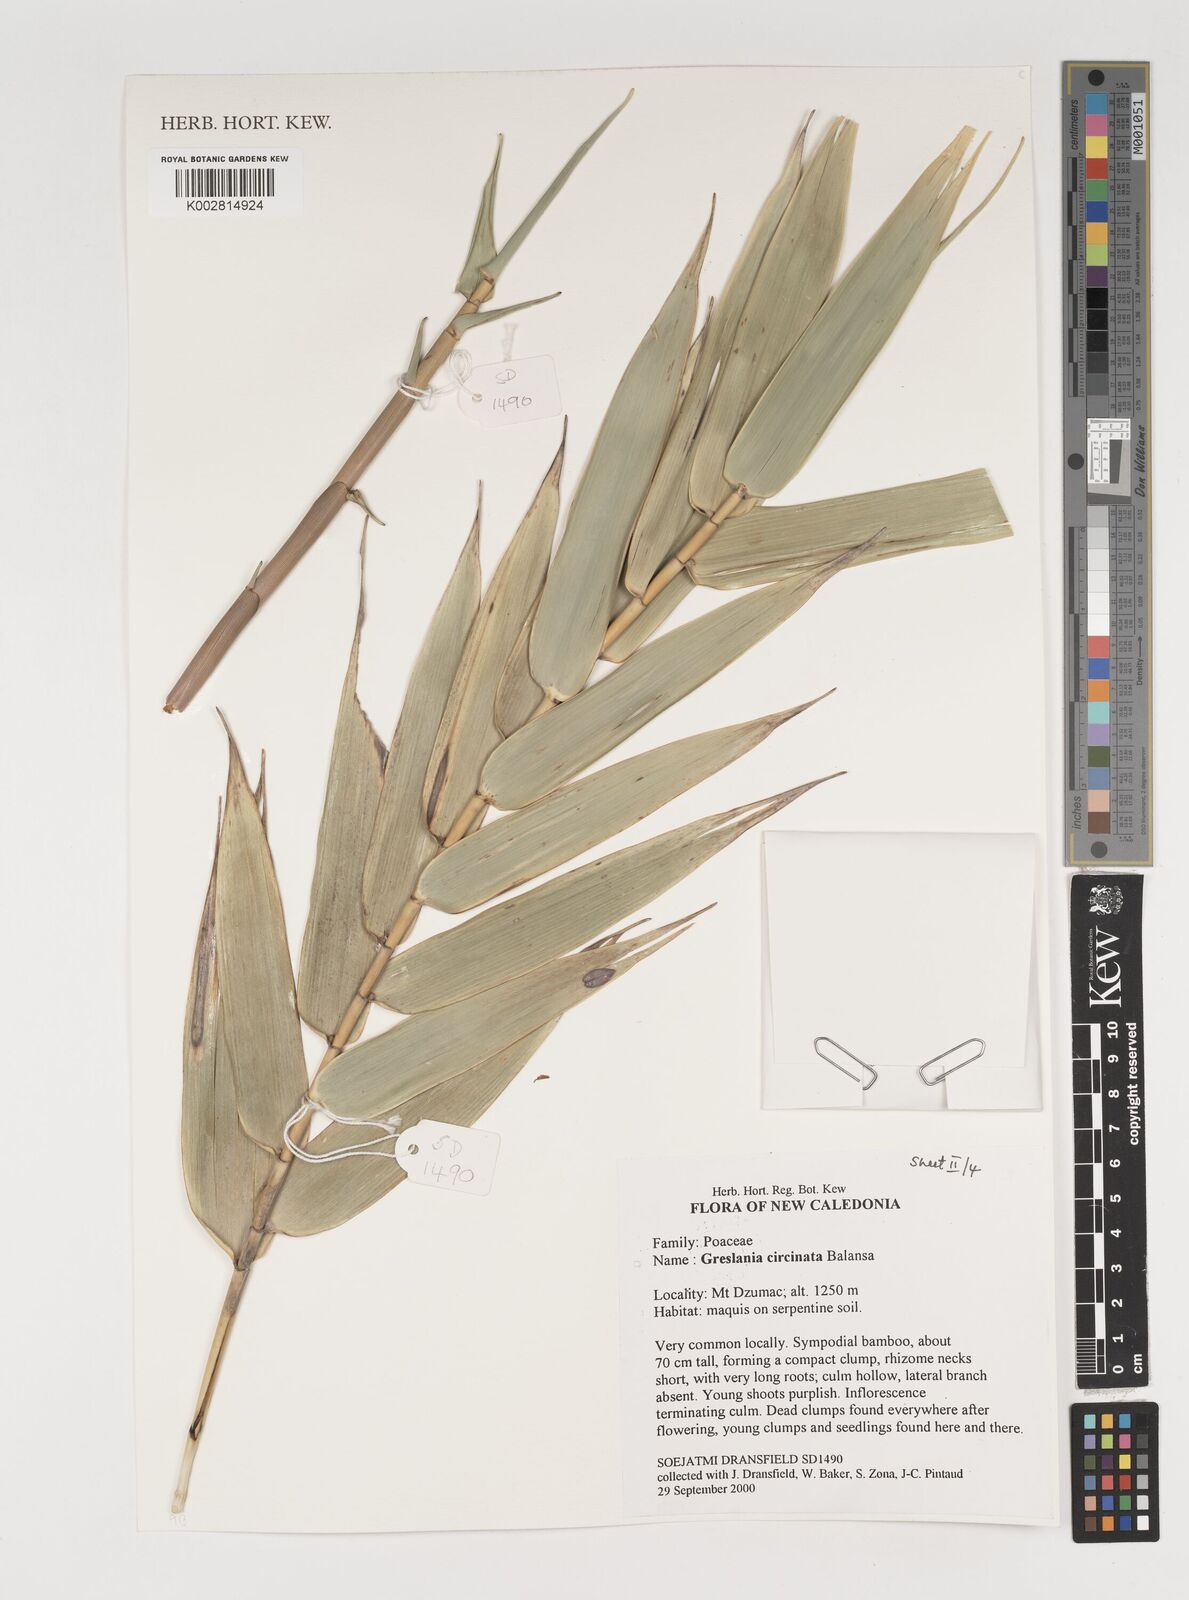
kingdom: Plantae
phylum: Tracheophyta
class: Liliopsida
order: Poales
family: Poaceae
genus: Greslania
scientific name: Greslania circinata
